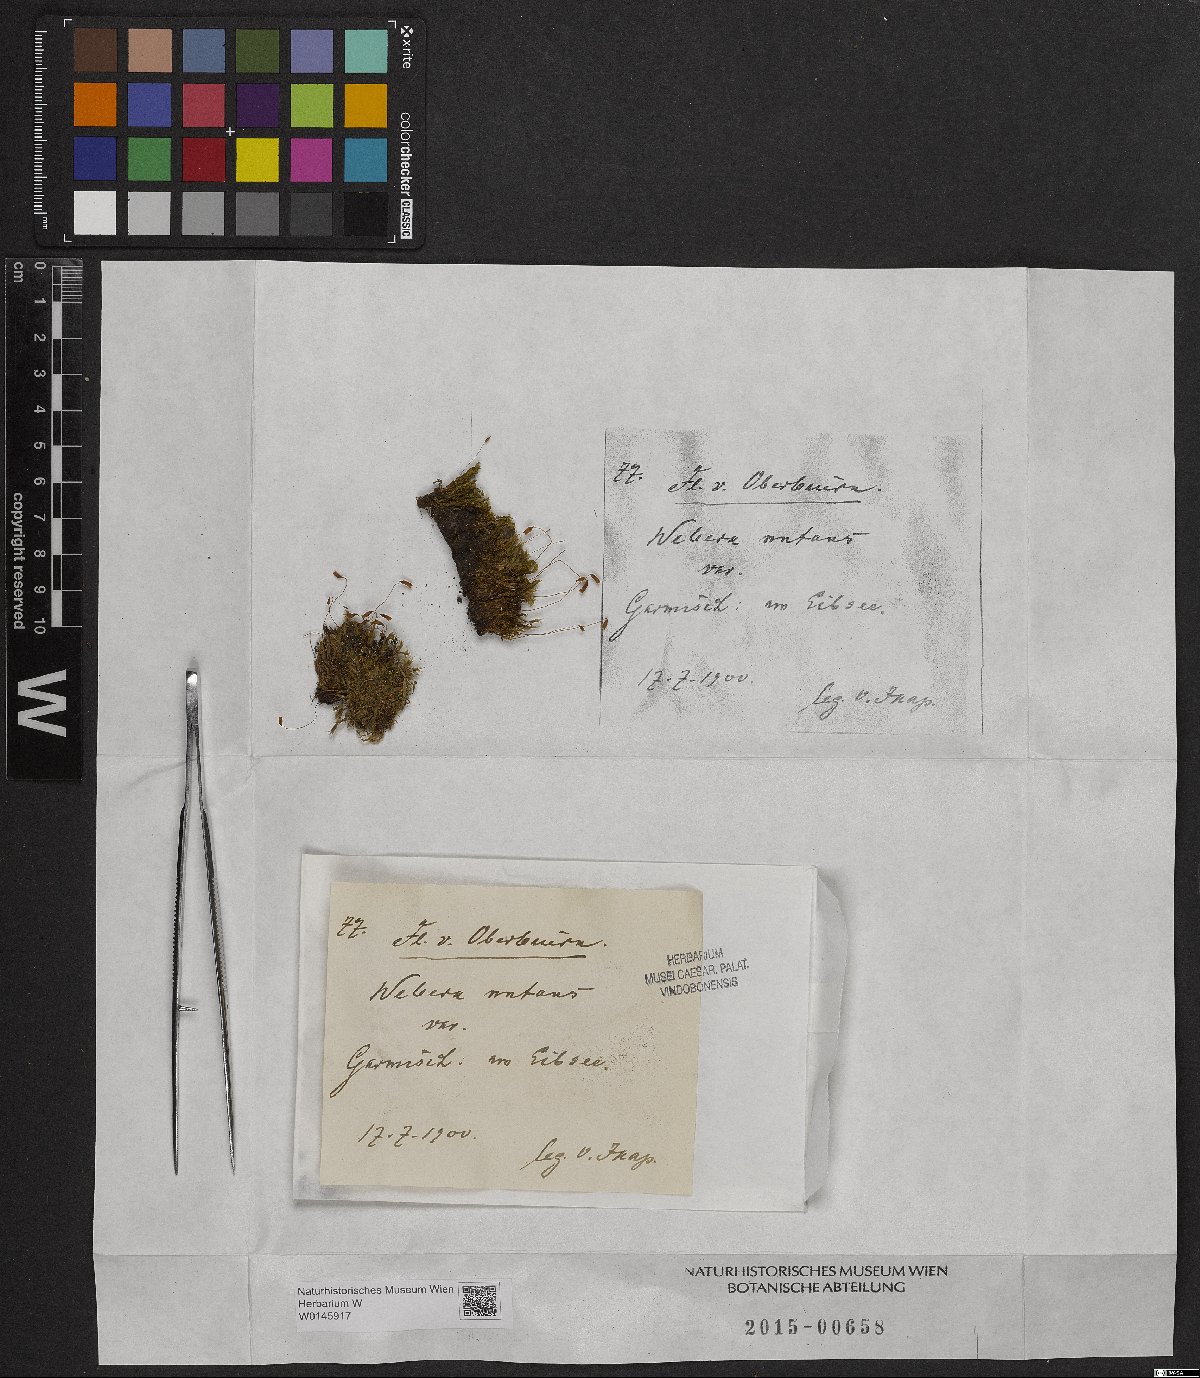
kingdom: Plantae
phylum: Bryophyta
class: Bryopsida
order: Bryales
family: Mniaceae
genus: Pohlia
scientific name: Pohlia nutans
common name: Nodding thread-moss
